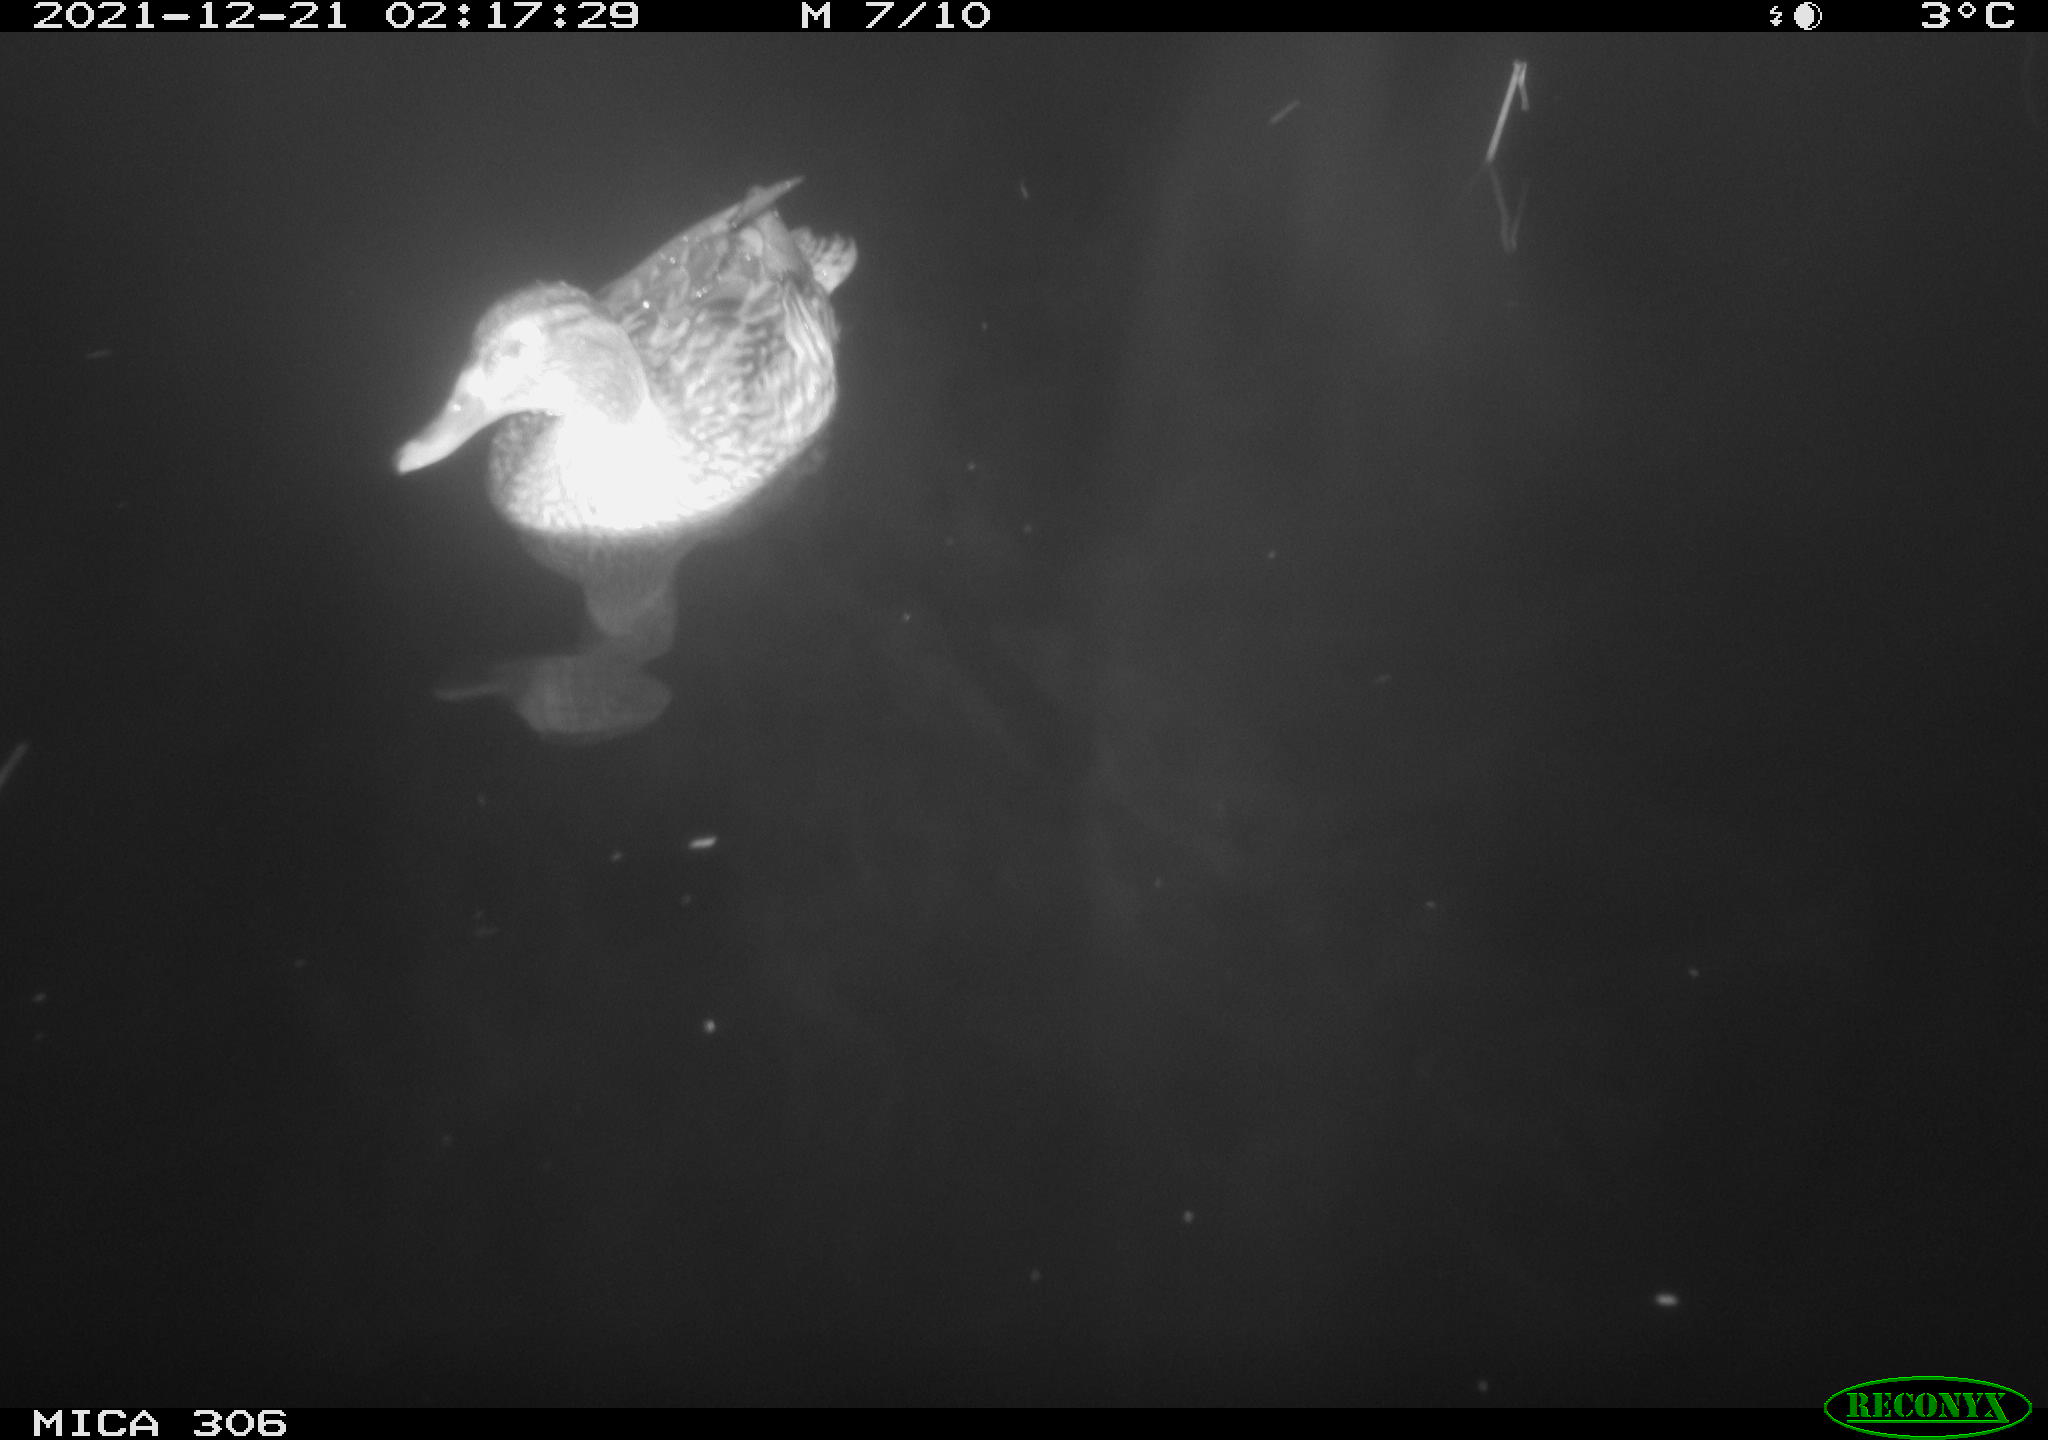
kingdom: Animalia
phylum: Chordata
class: Mammalia
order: Rodentia
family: Cricetidae
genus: Ondatra
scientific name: Ondatra zibethicus
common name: Muskrat
